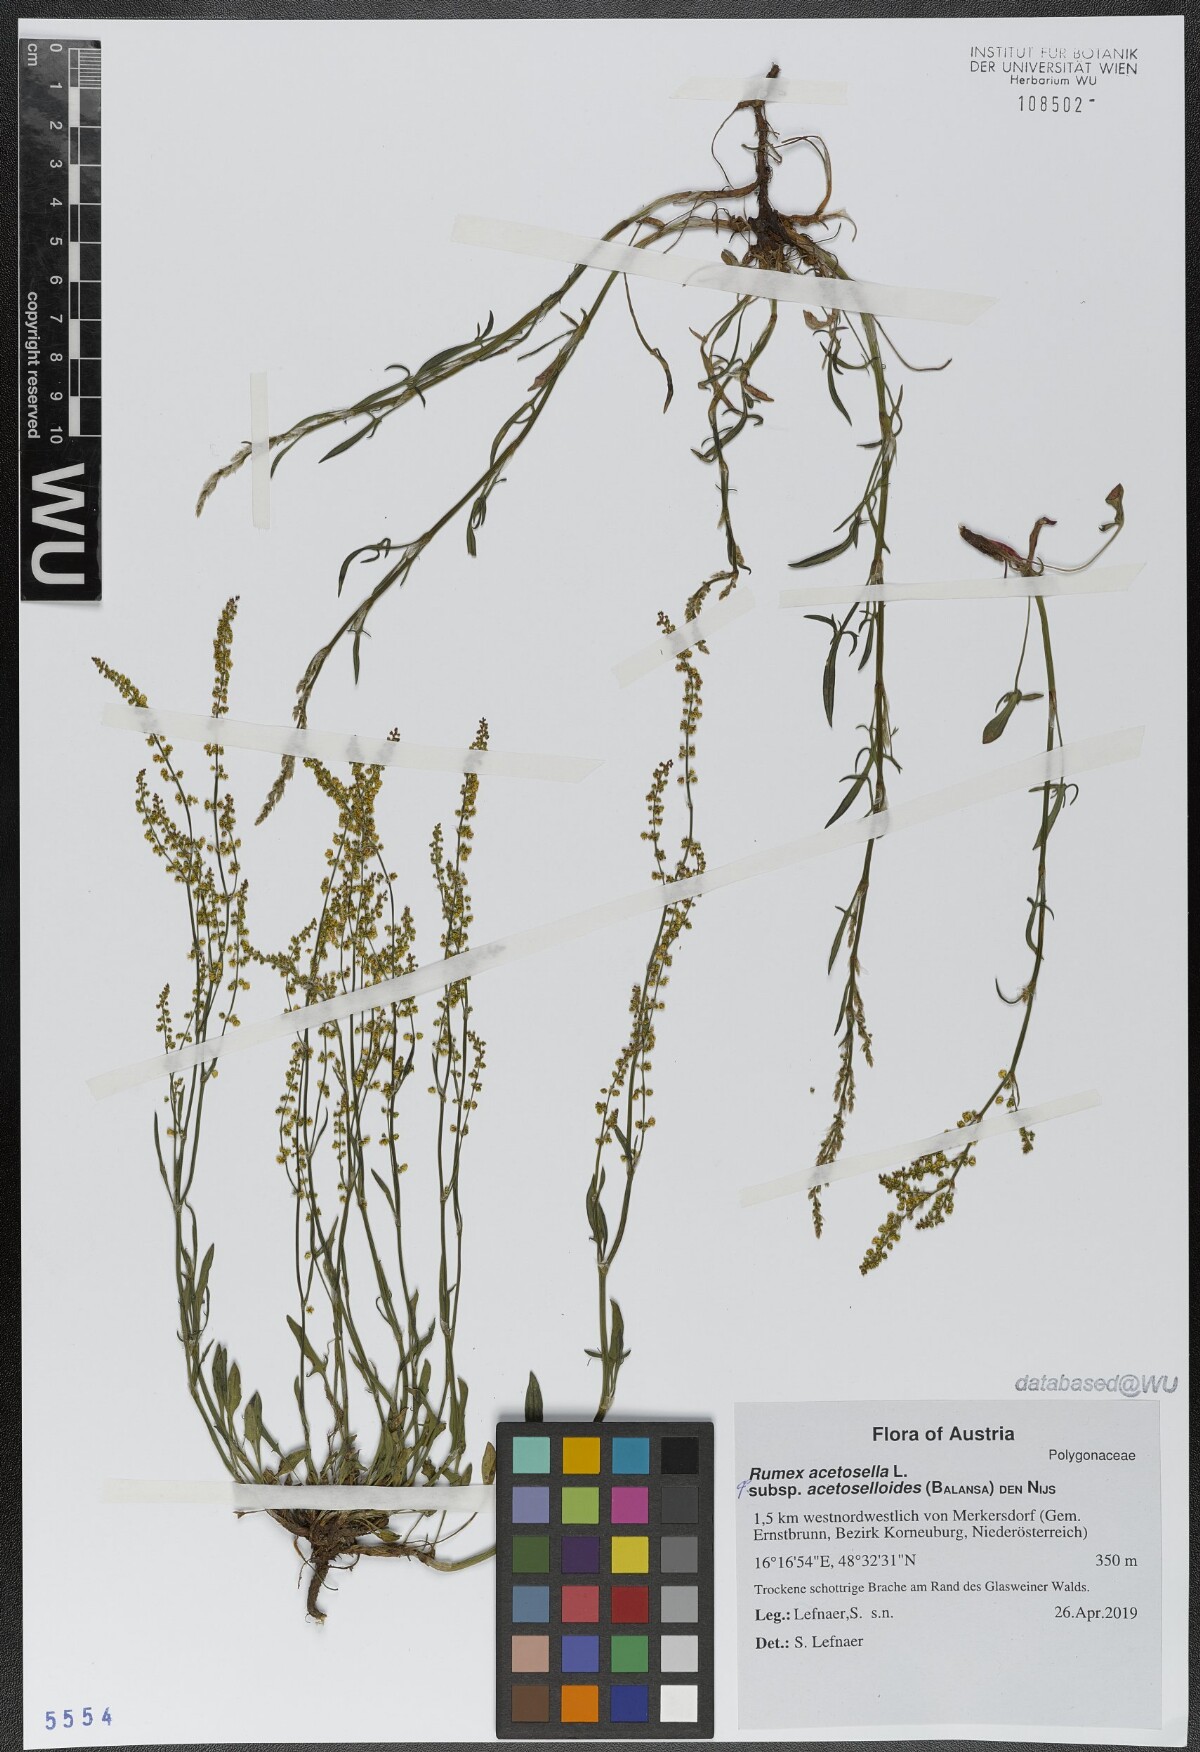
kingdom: Plantae
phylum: Tracheophyta
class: Magnoliopsida
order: Caryophyllales
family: Polygonaceae
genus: Rumex
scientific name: Rumex acetosella
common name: Common sheep sorrel
